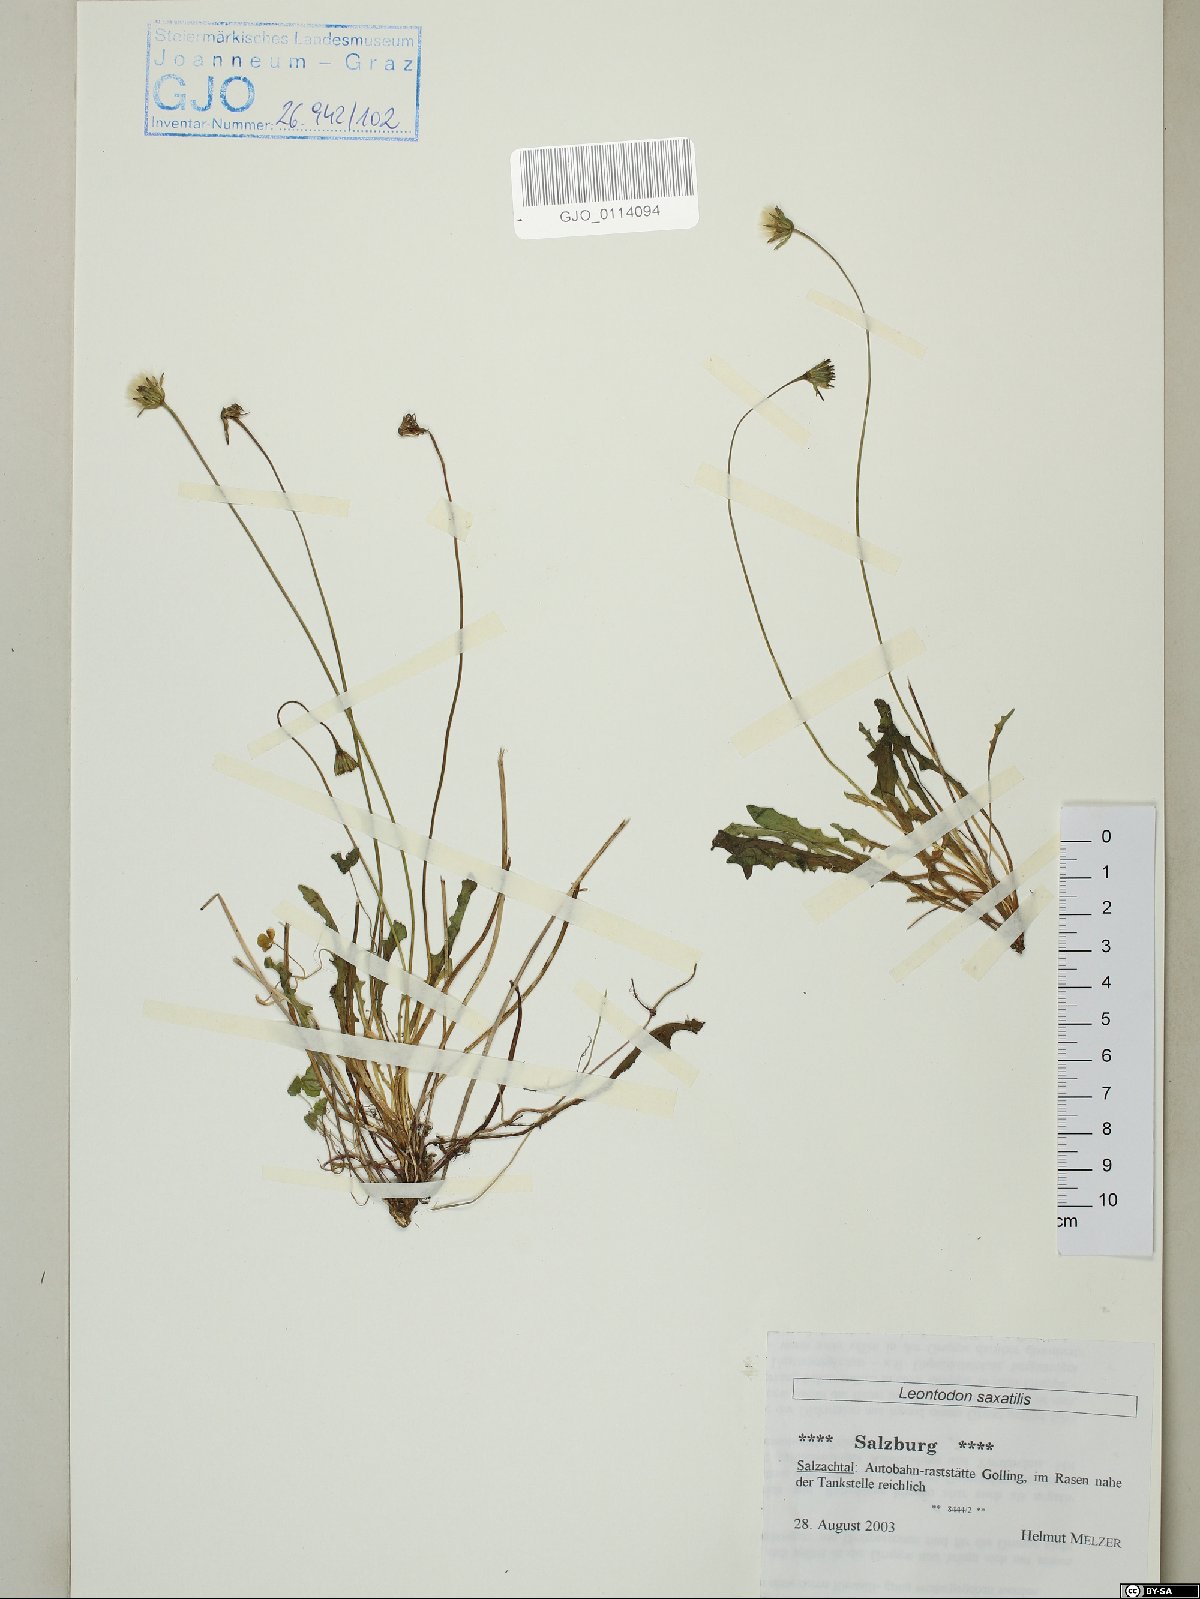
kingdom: Plantae
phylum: Tracheophyta
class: Magnoliopsida
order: Asterales
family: Asteraceae
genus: Thrincia
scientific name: Thrincia saxatilis
